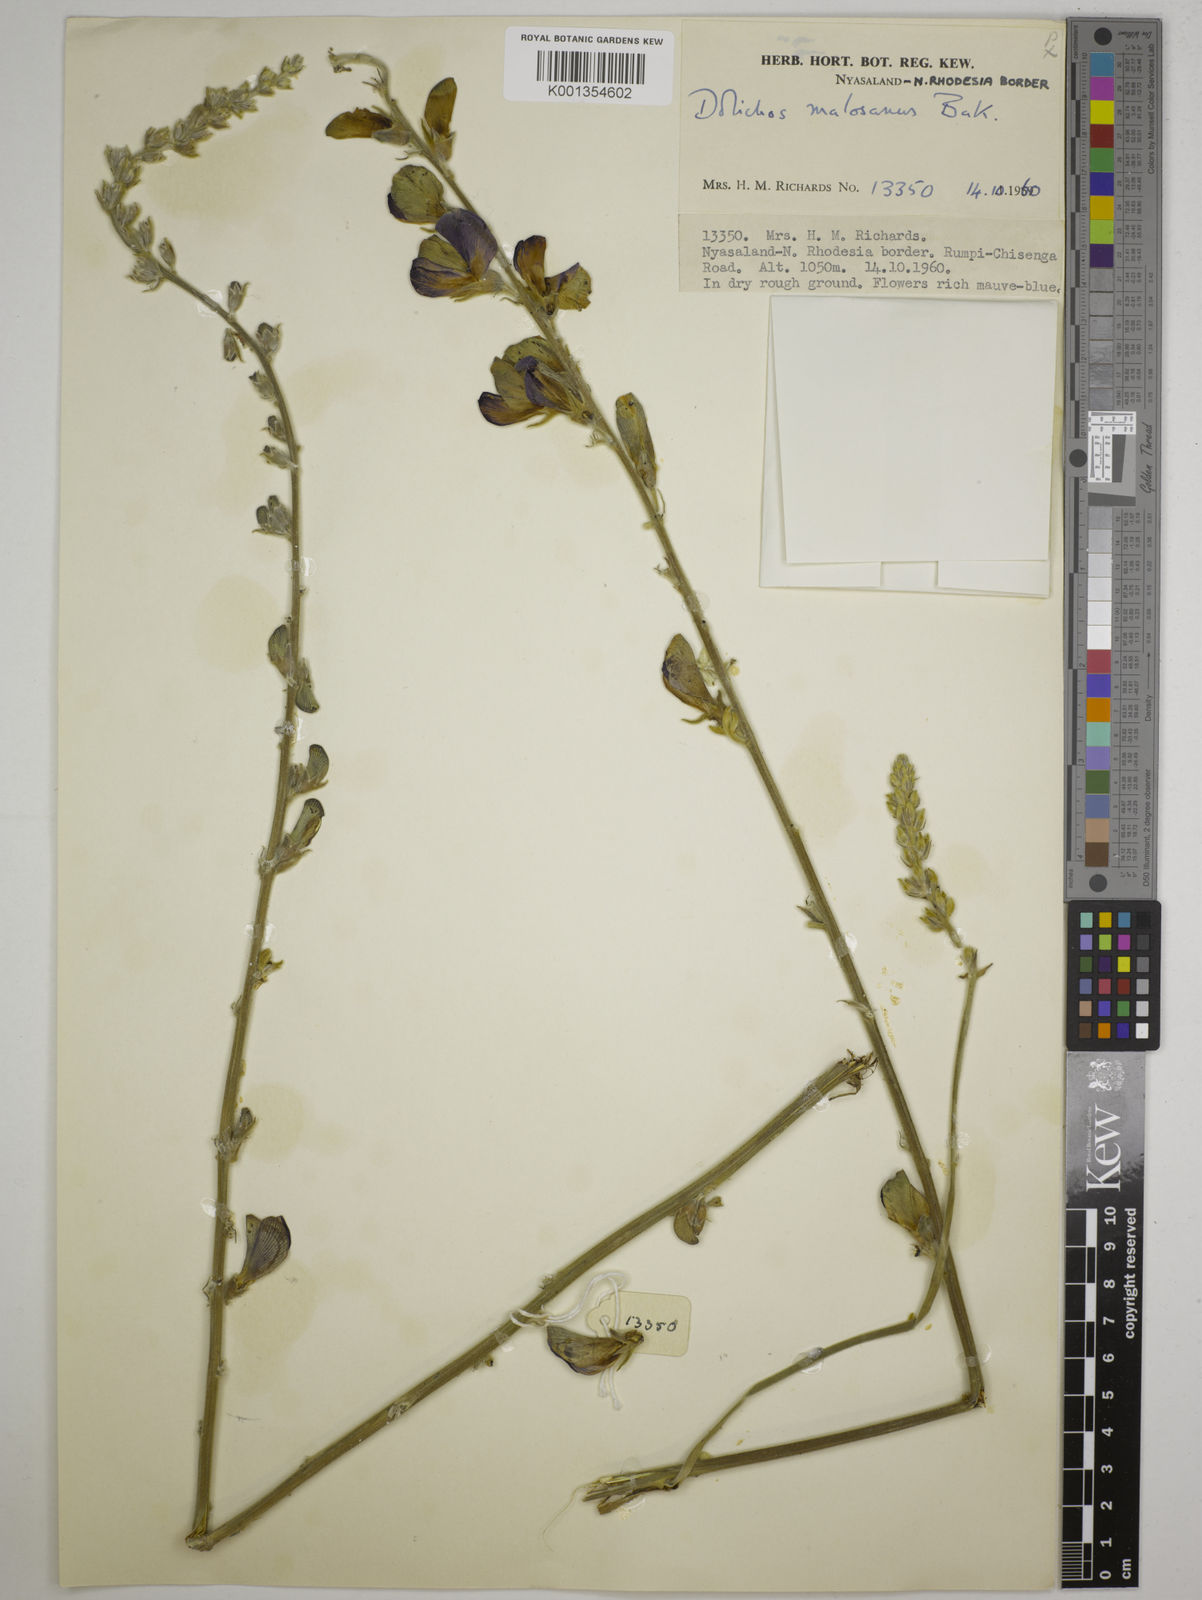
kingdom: Plantae
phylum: Tracheophyta
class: Magnoliopsida
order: Fabales
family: Fabaceae
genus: Dolichos
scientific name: Dolichos kilimandscharicus
